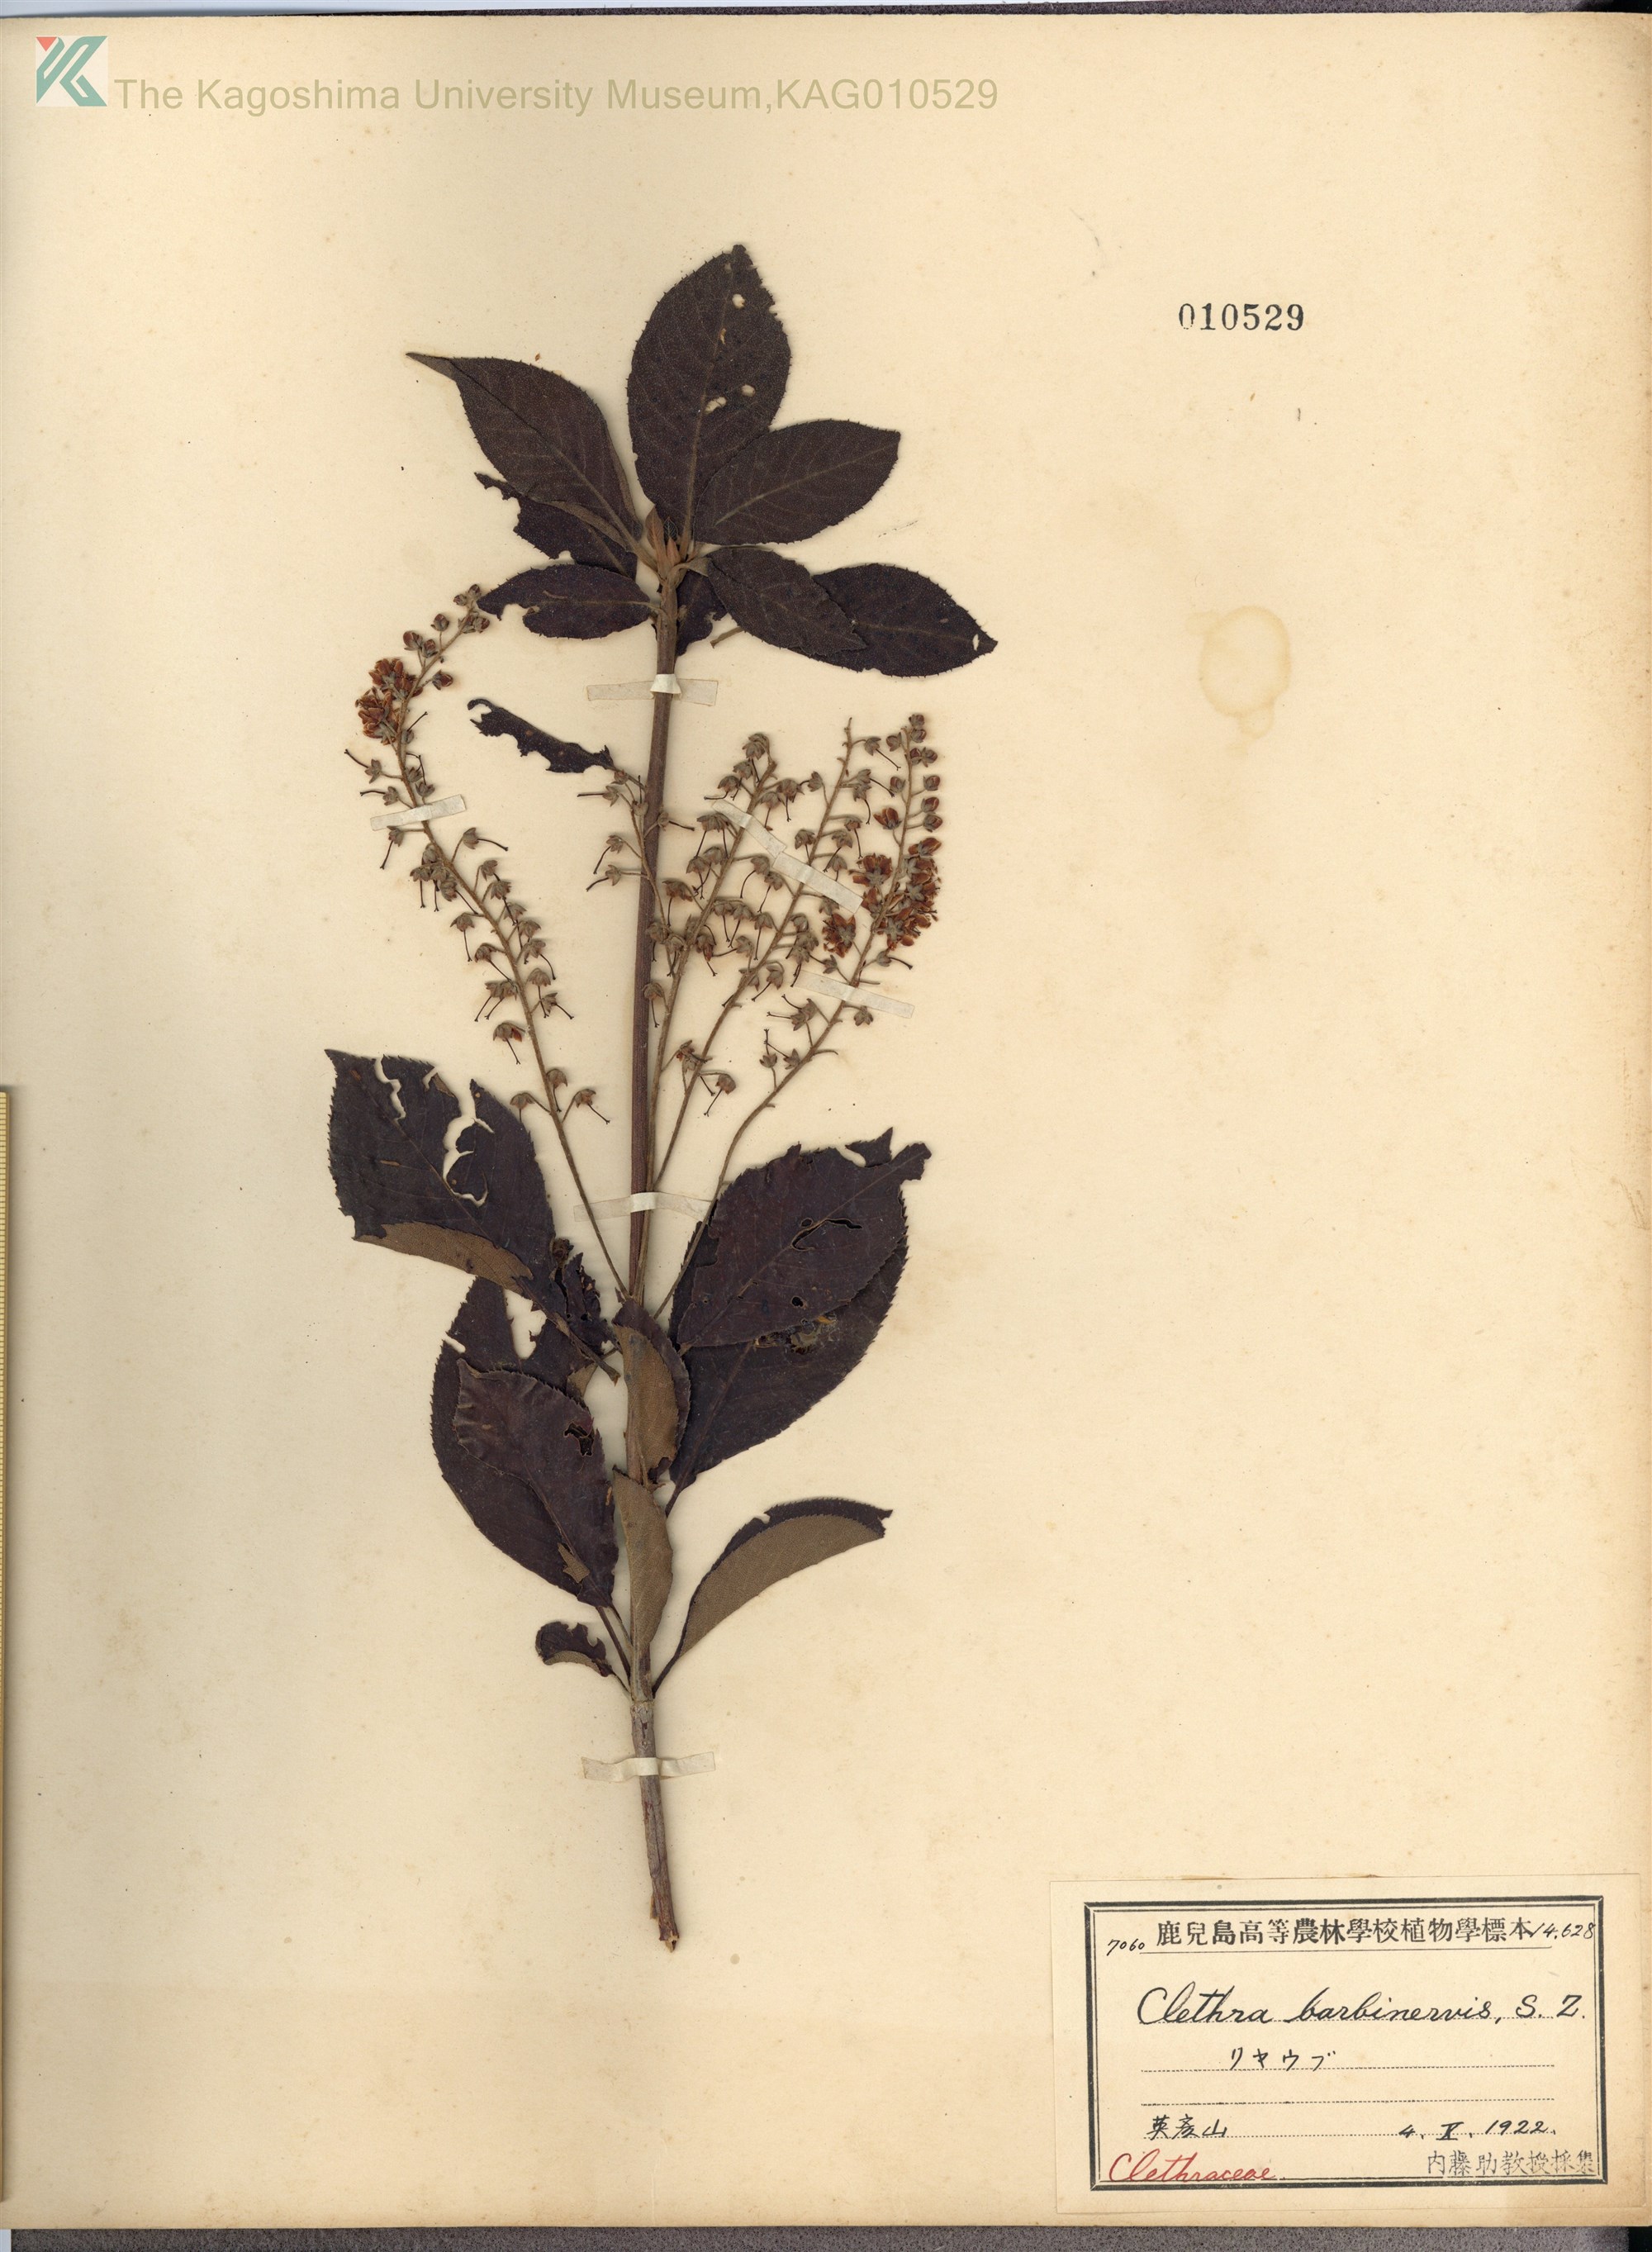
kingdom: Plantae
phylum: Tracheophyta
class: Magnoliopsida
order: Ericales
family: Clethraceae
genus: Clethra
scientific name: Clethra barbinervis
